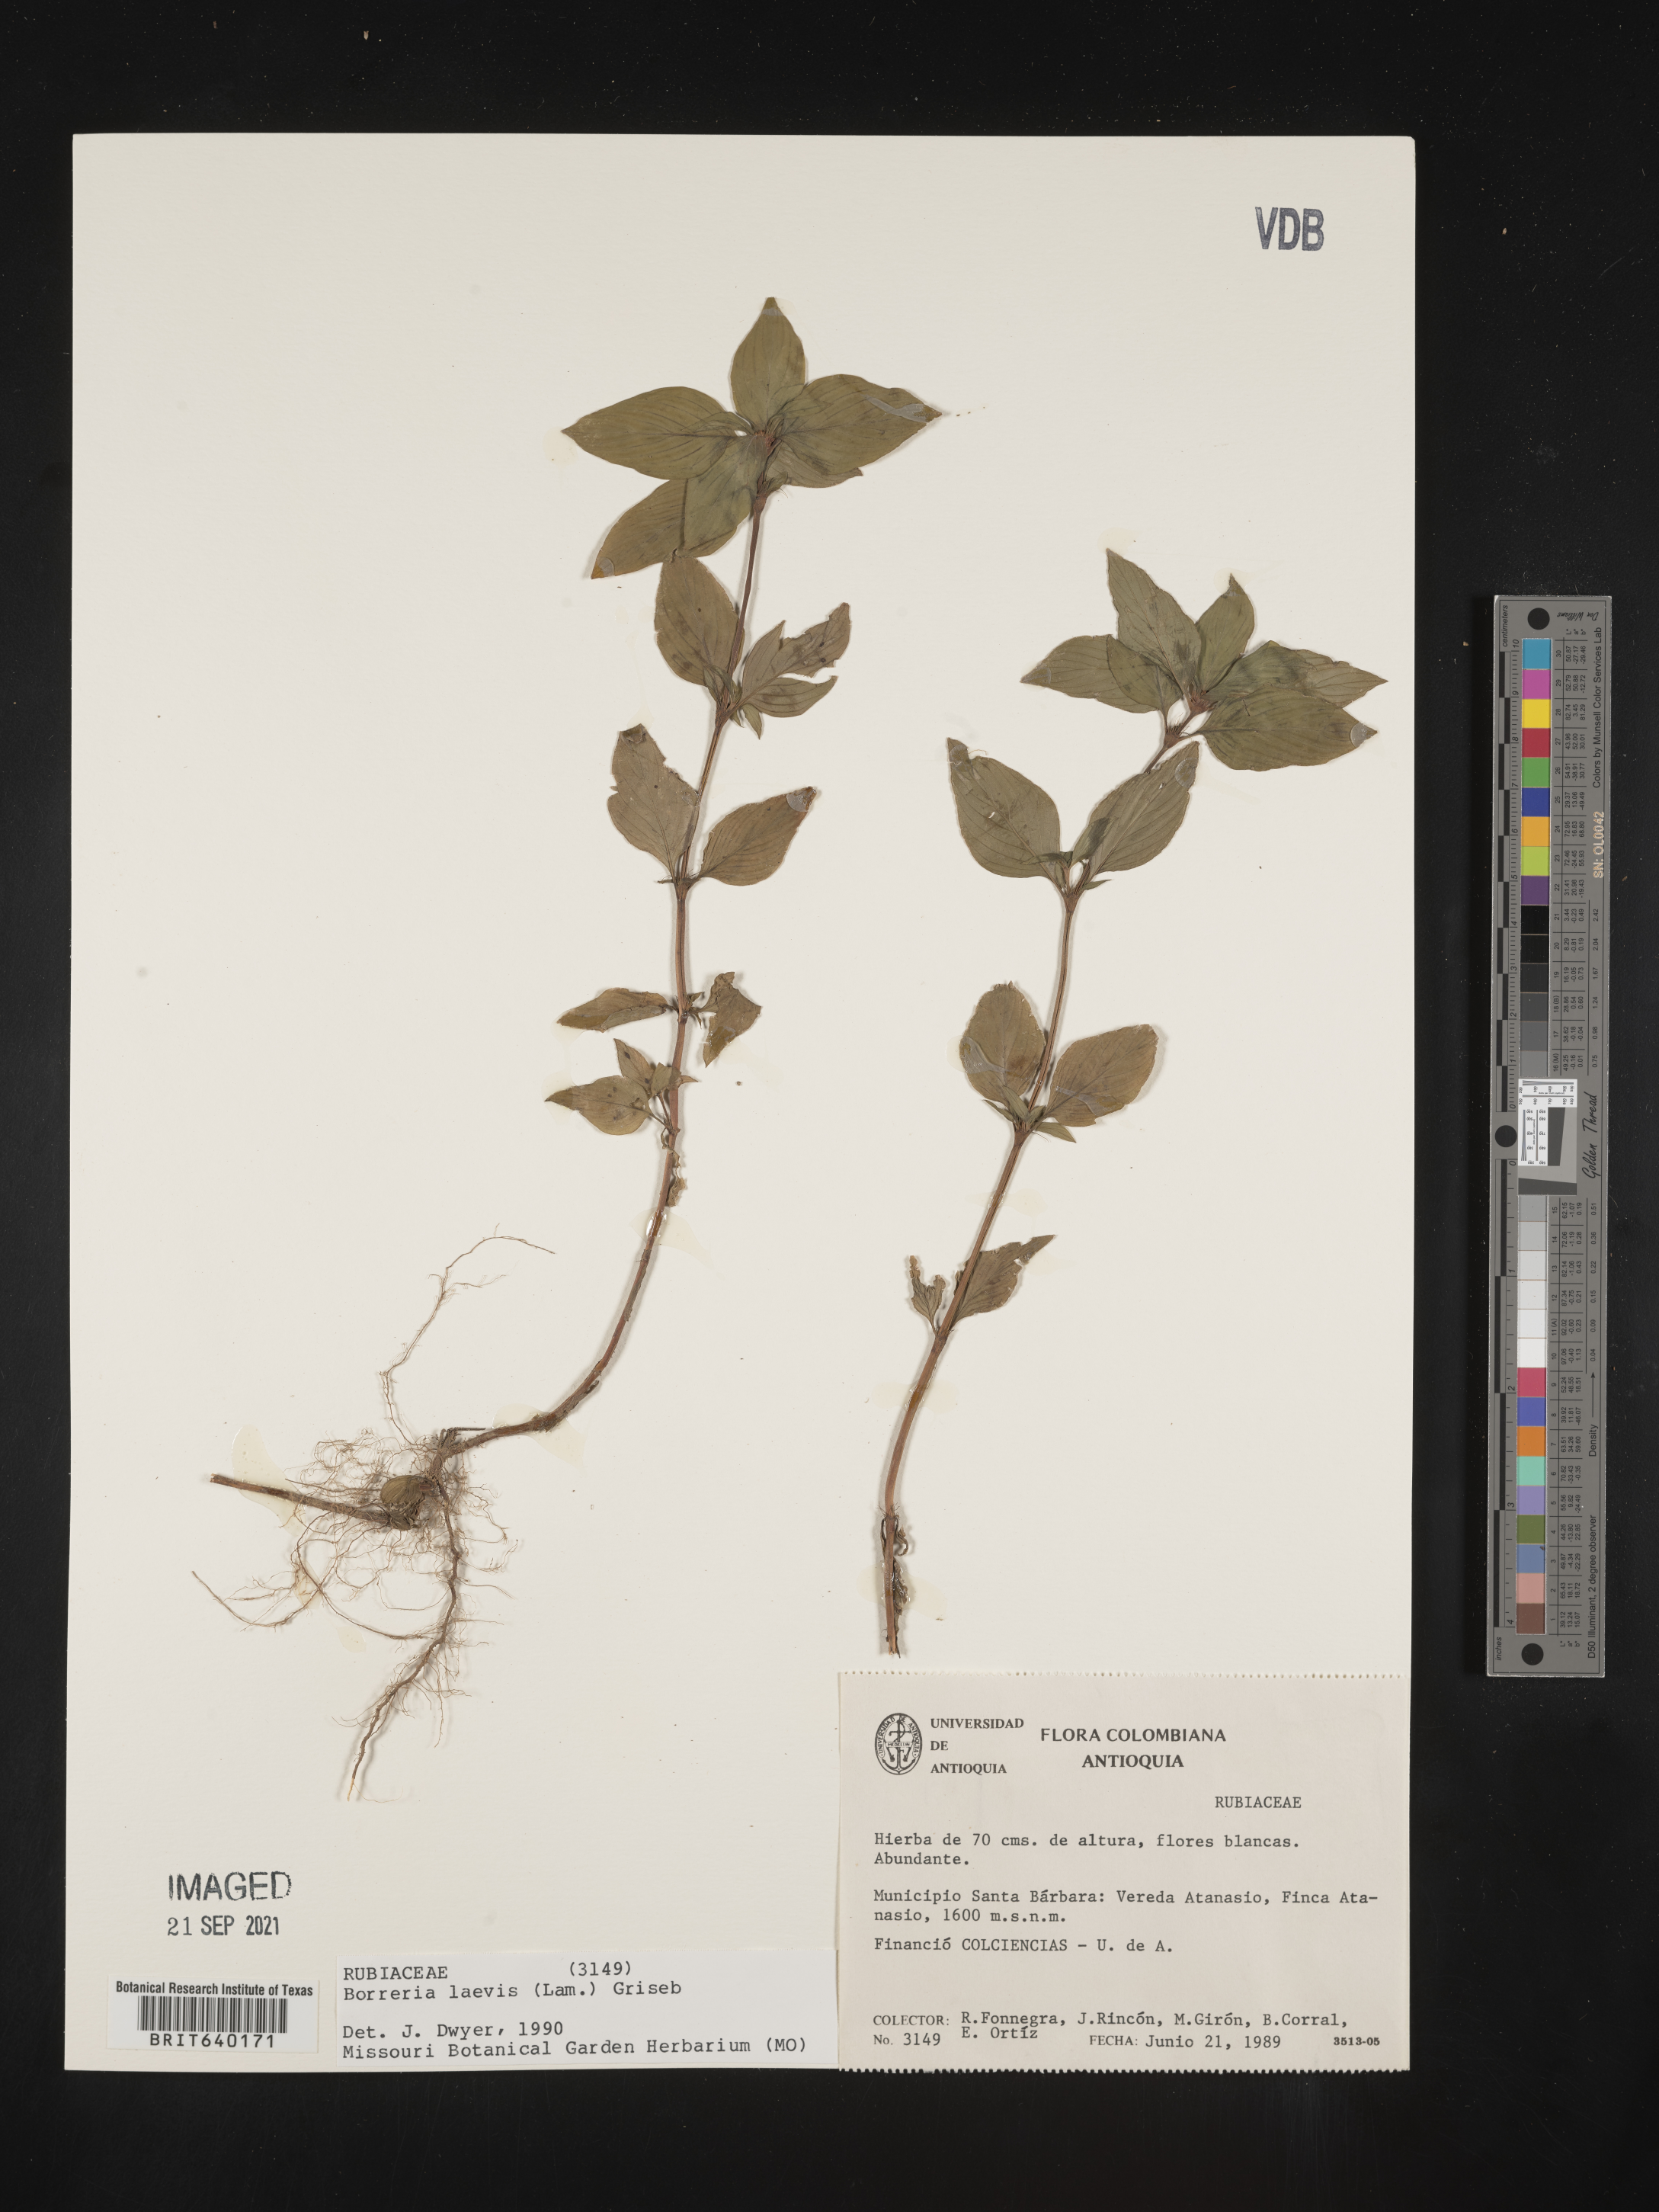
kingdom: Plantae
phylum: Tracheophyta
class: Magnoliopsida
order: Gentianales
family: Rubiaceae
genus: Spermacoce
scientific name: Spermacoce
